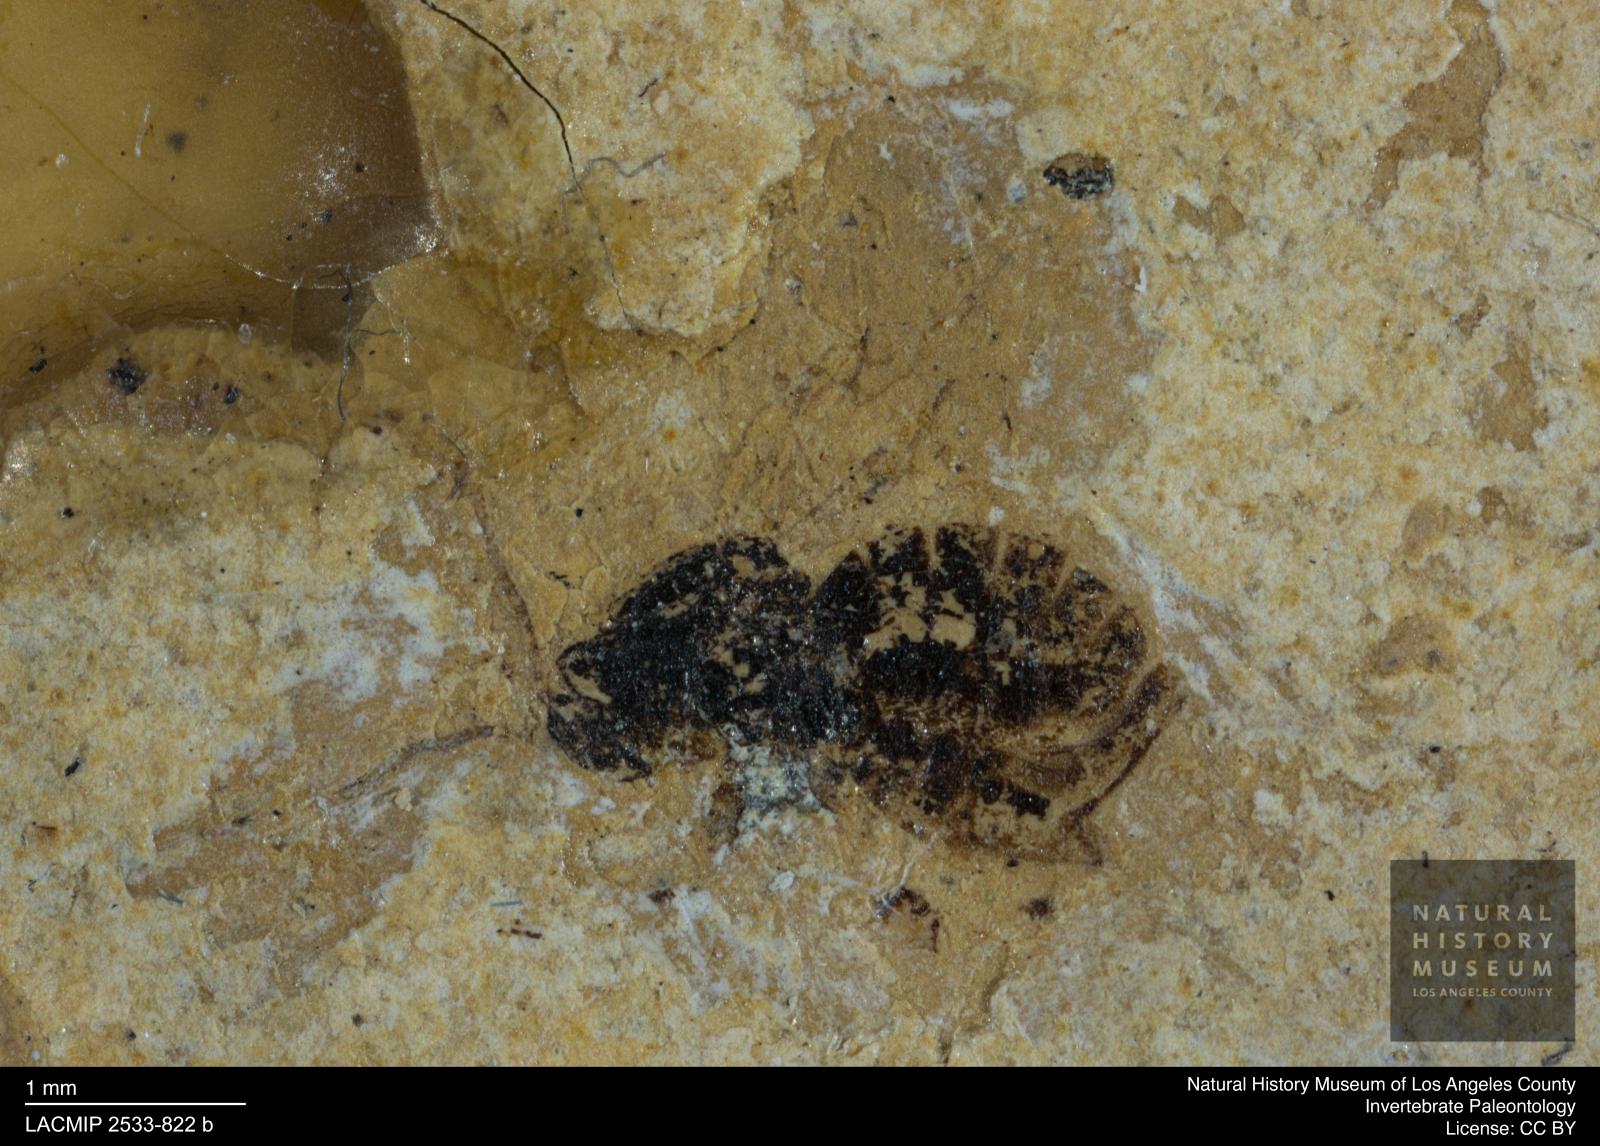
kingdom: Animalia
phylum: Arthropoda
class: Insecta
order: Hymenoptera
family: Cynipidae
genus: Aulacidea
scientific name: Aulacidea Figites spiniger
